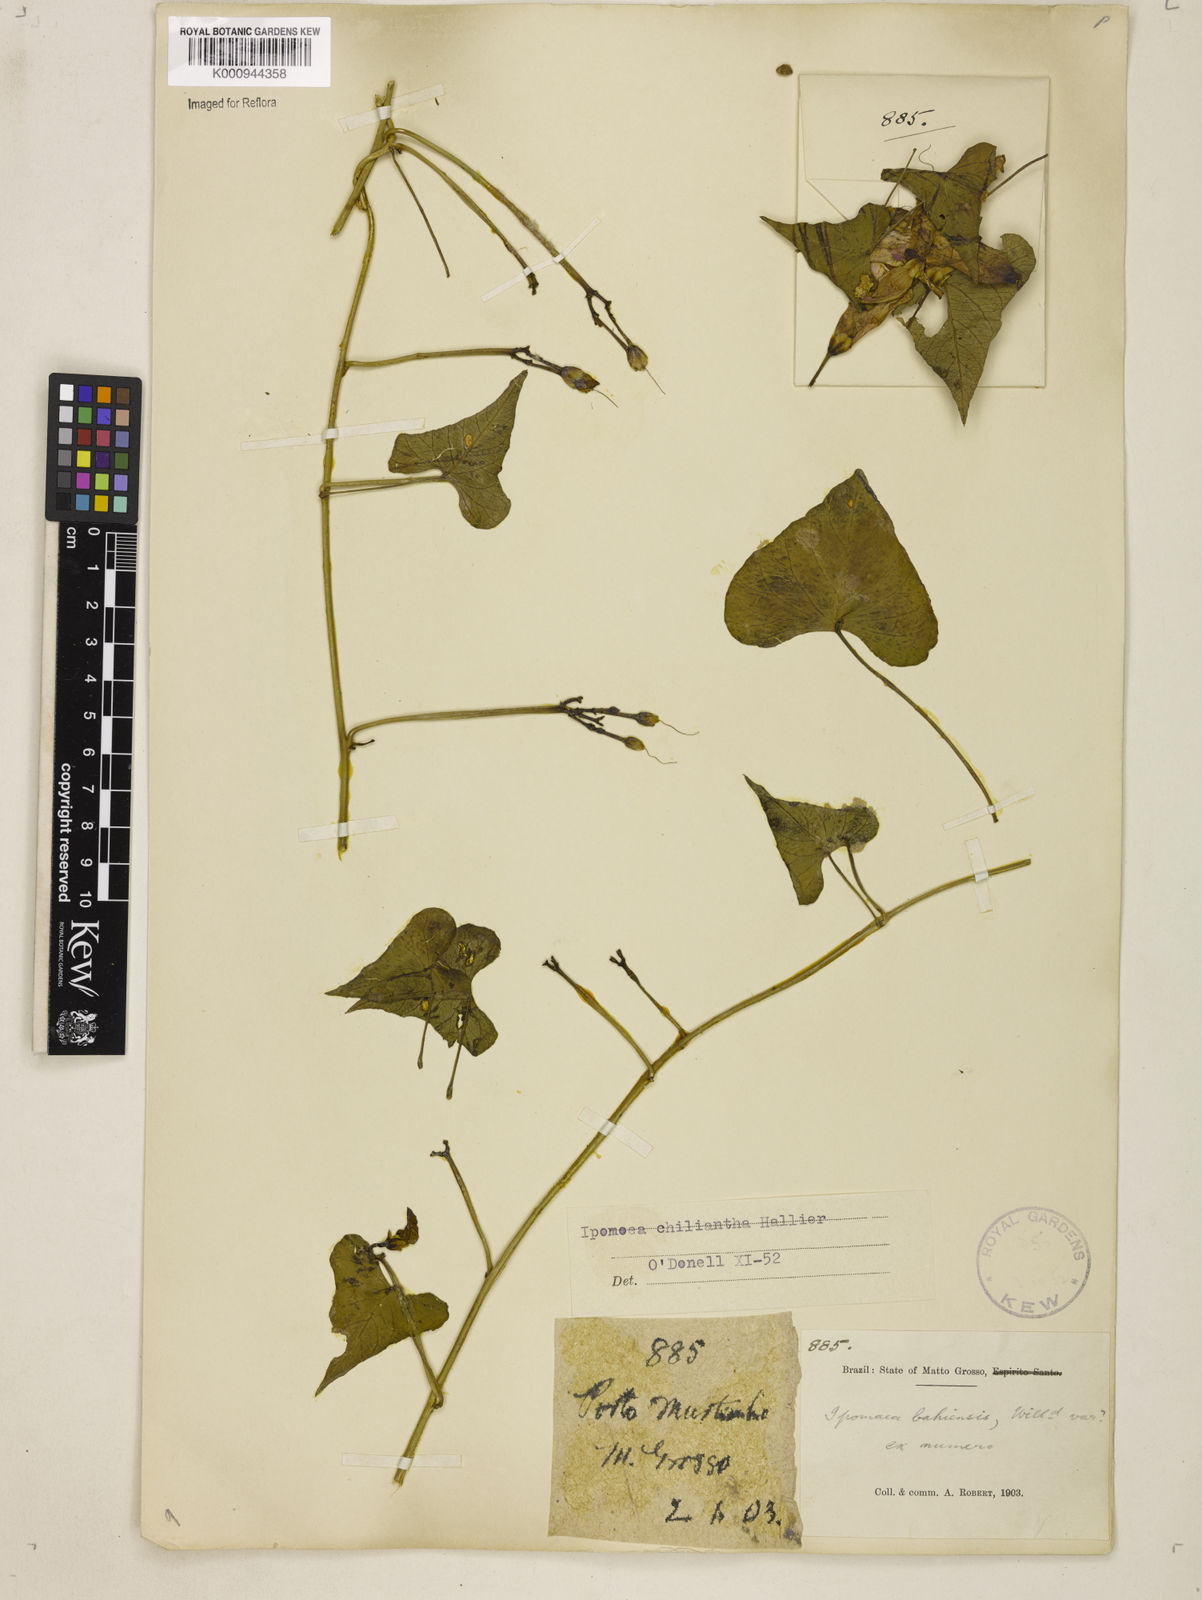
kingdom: Plantae
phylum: Tracheophyta
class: Magnoliopsida
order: Solanales
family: Convolvulaceae
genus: Ipomoea
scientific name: Ipomoea amnicola
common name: Redcenter morning-glory
